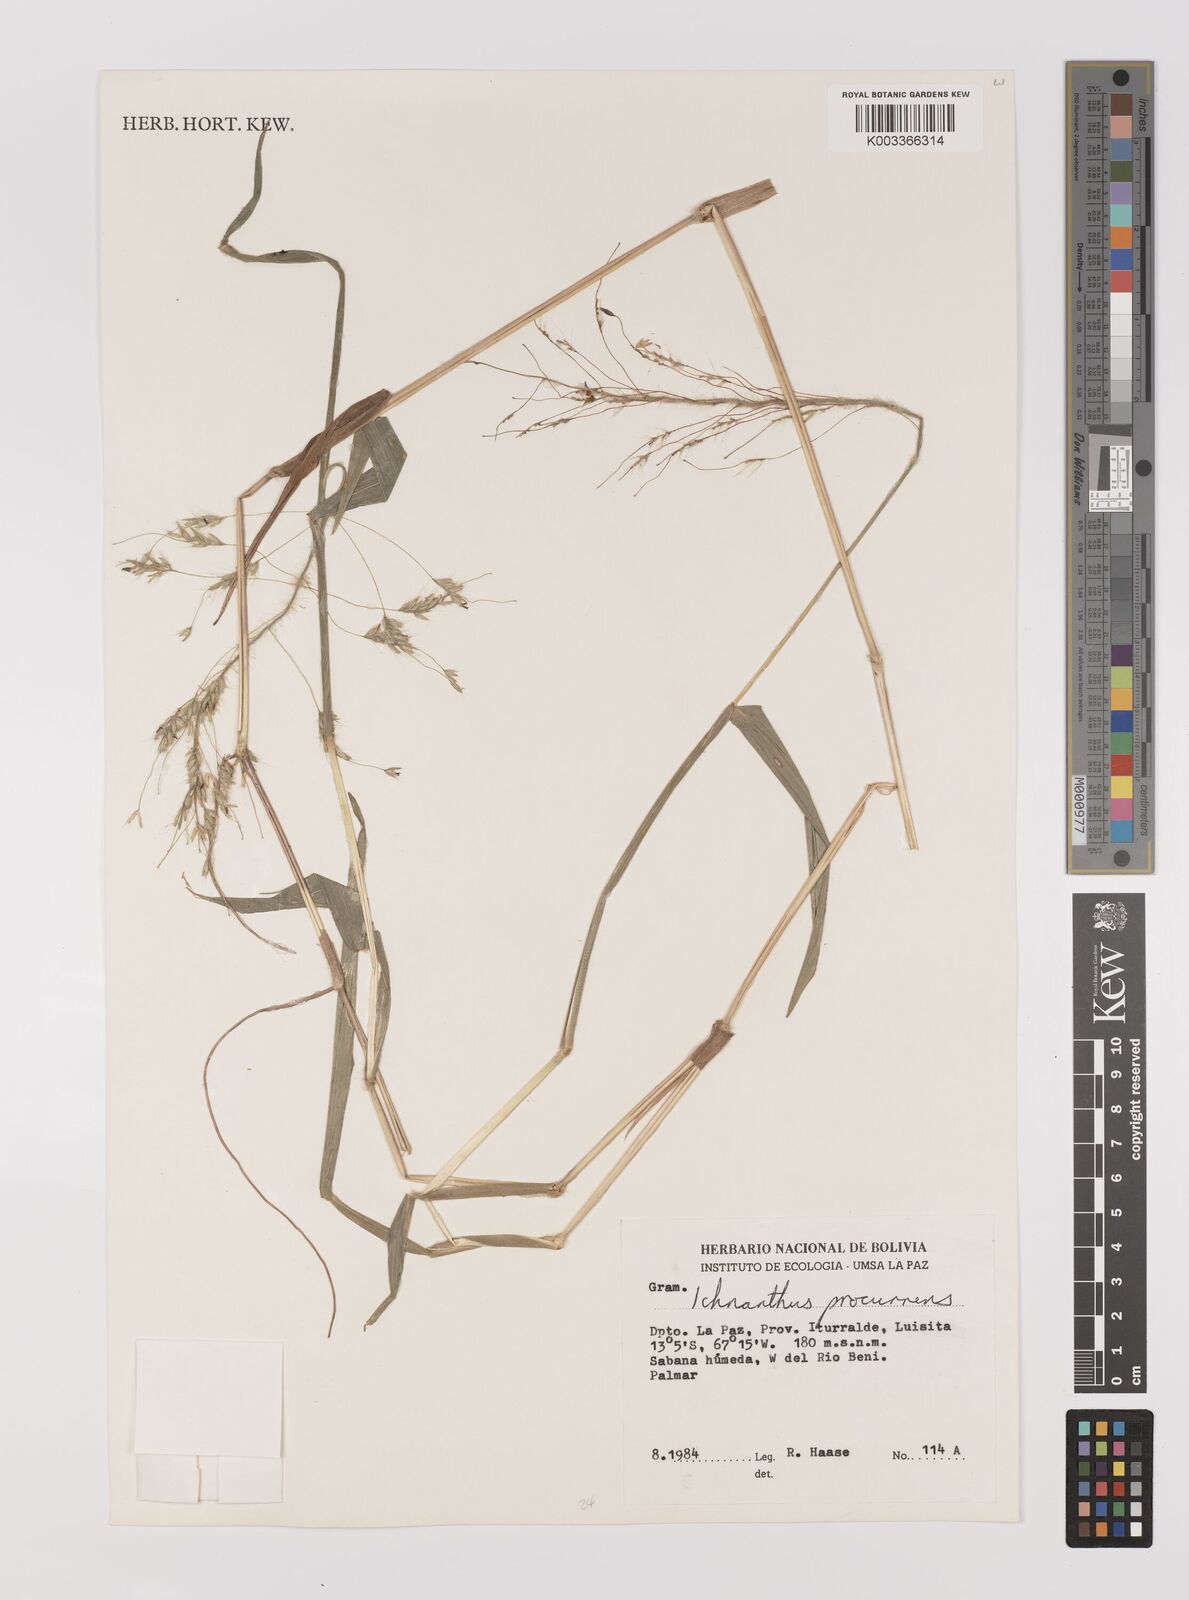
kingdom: Plantae
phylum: Tracheophyta
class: Liliopsida
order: Poales
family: Poaceae
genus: Oedochloa
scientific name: Oedochloa procurrens
